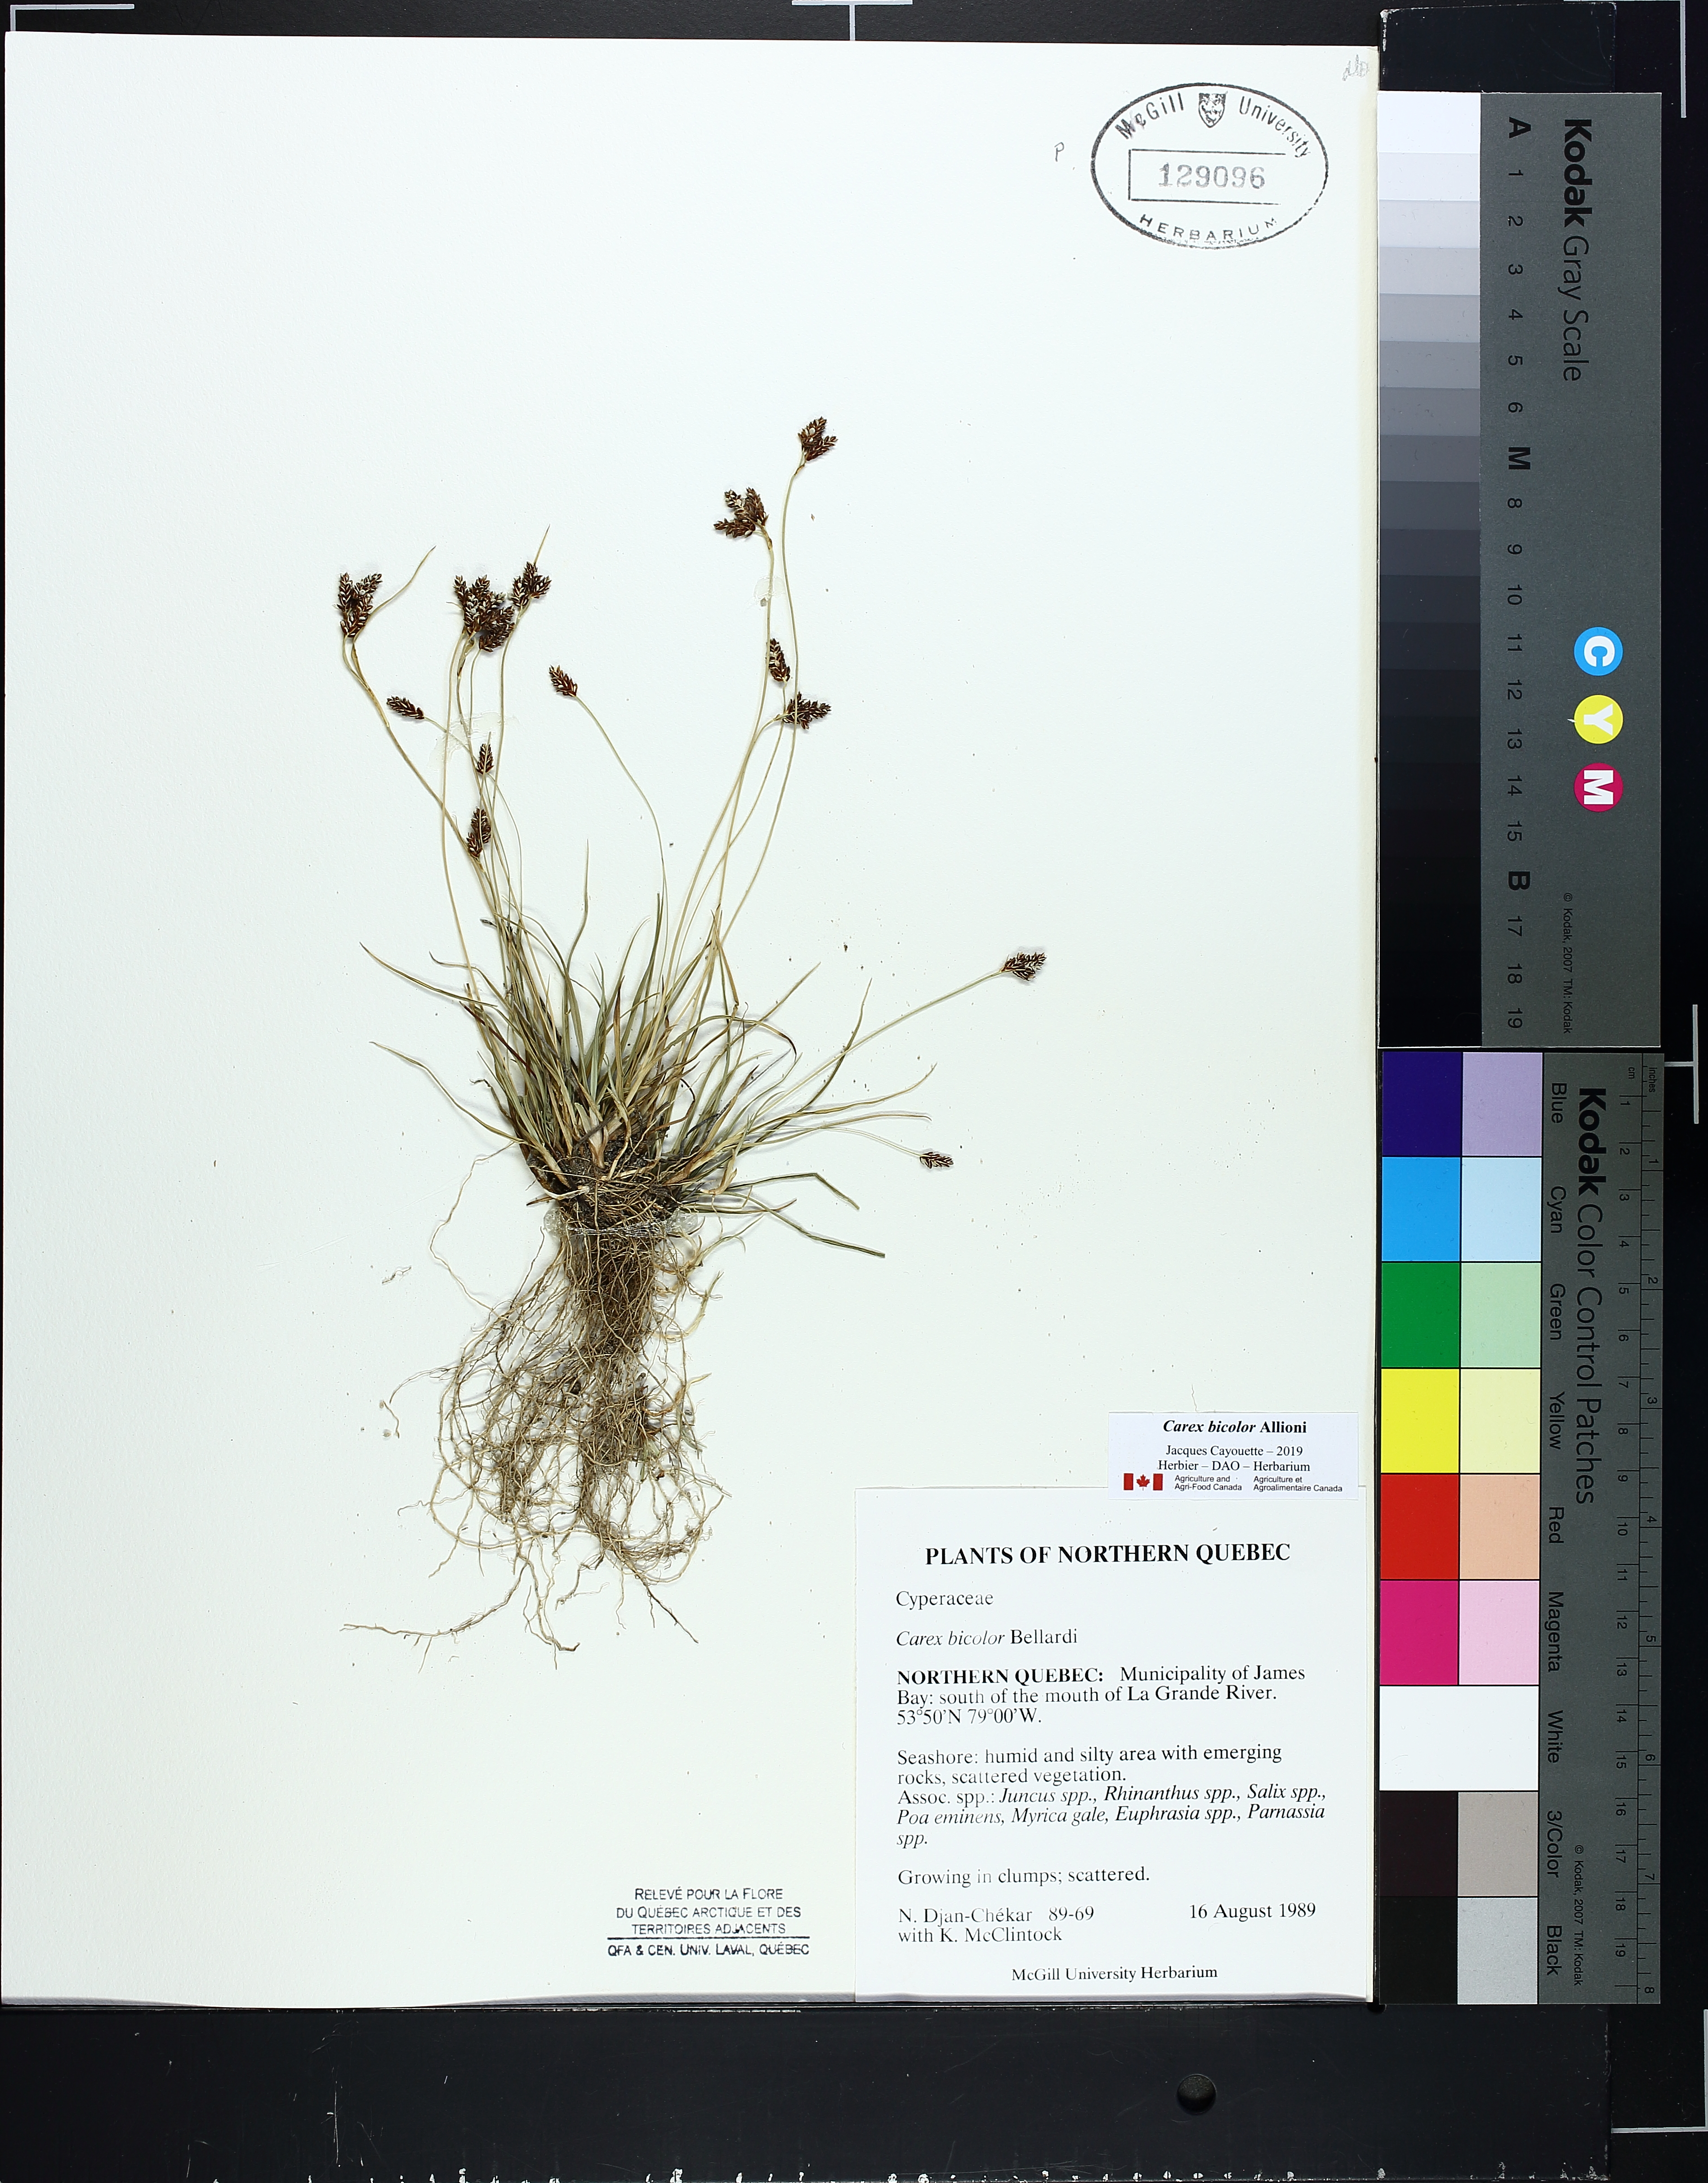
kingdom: Plantae
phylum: Tracheophyta
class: Liliopsida
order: Poales
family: Cyperaceae
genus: Carex
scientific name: Carex bicolor
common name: Bicoloured sedge
